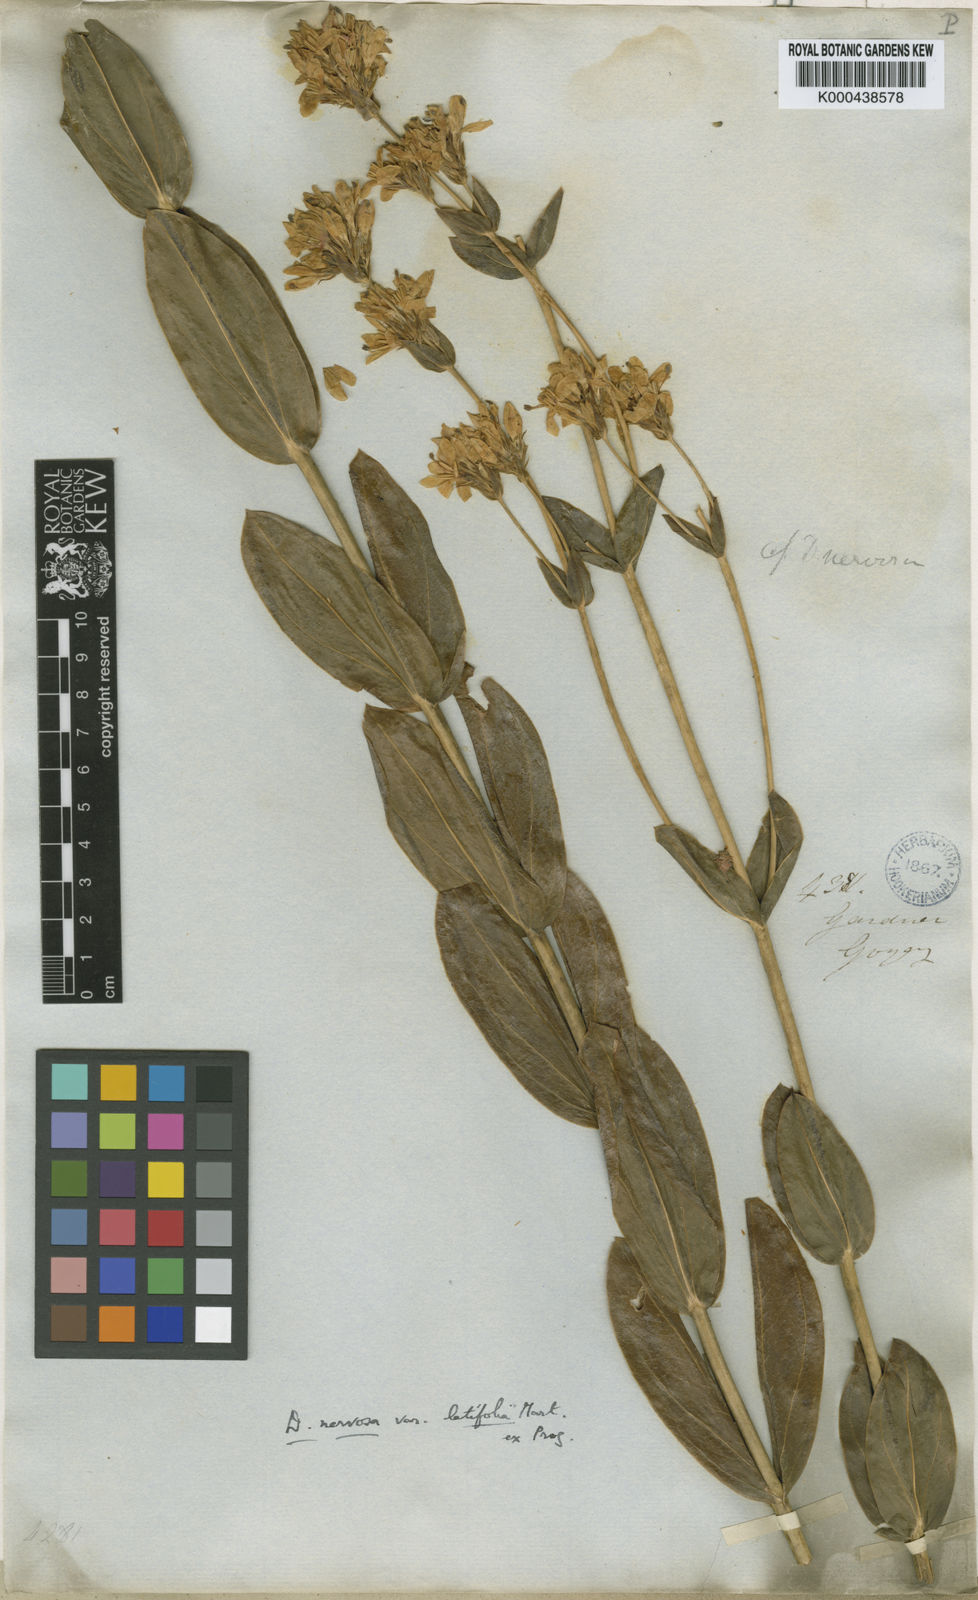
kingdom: Plantae
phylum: Tracheophyta
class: Magnoliopsida
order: Gentianales
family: Gentianaceae
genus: Deianira
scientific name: Deianira nervosa
